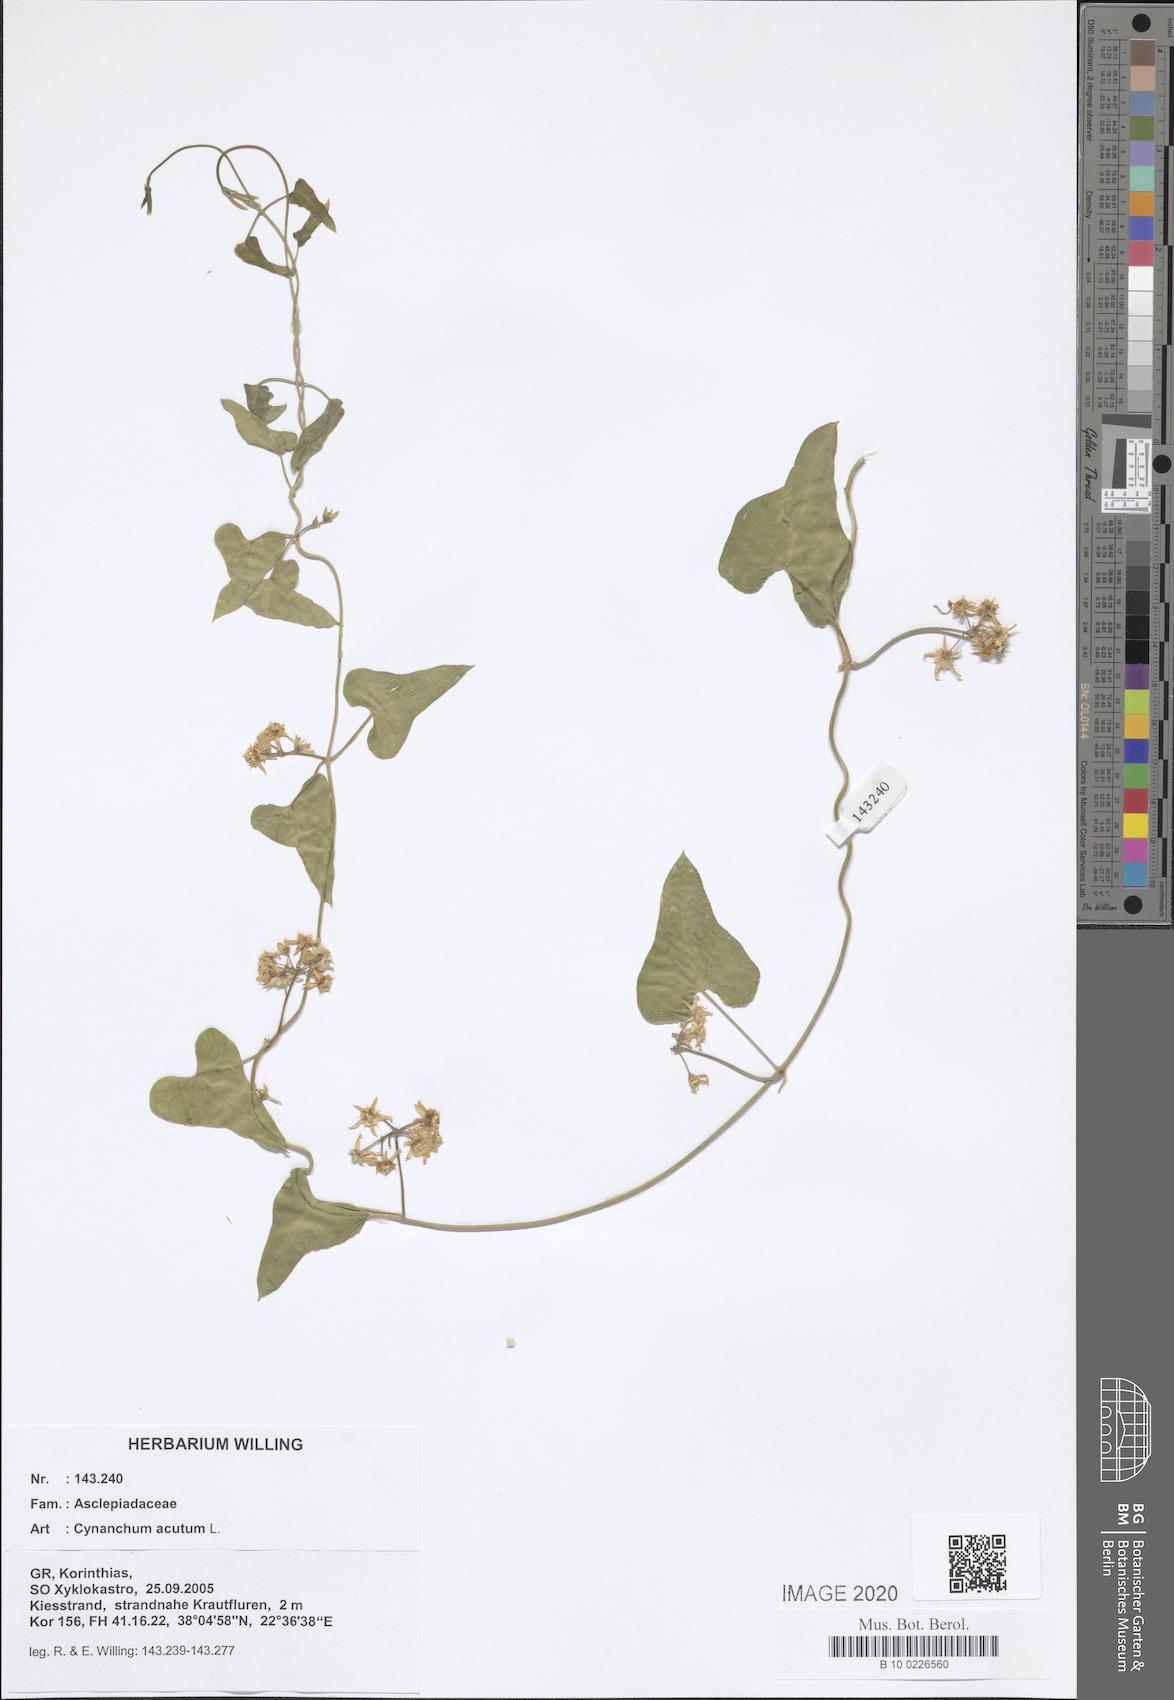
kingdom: Plantae
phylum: Tracheophyta
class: Magnoliopsida
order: Gentianales
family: Apocynaceae
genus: Cynanchum
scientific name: Cynanchum acutum
